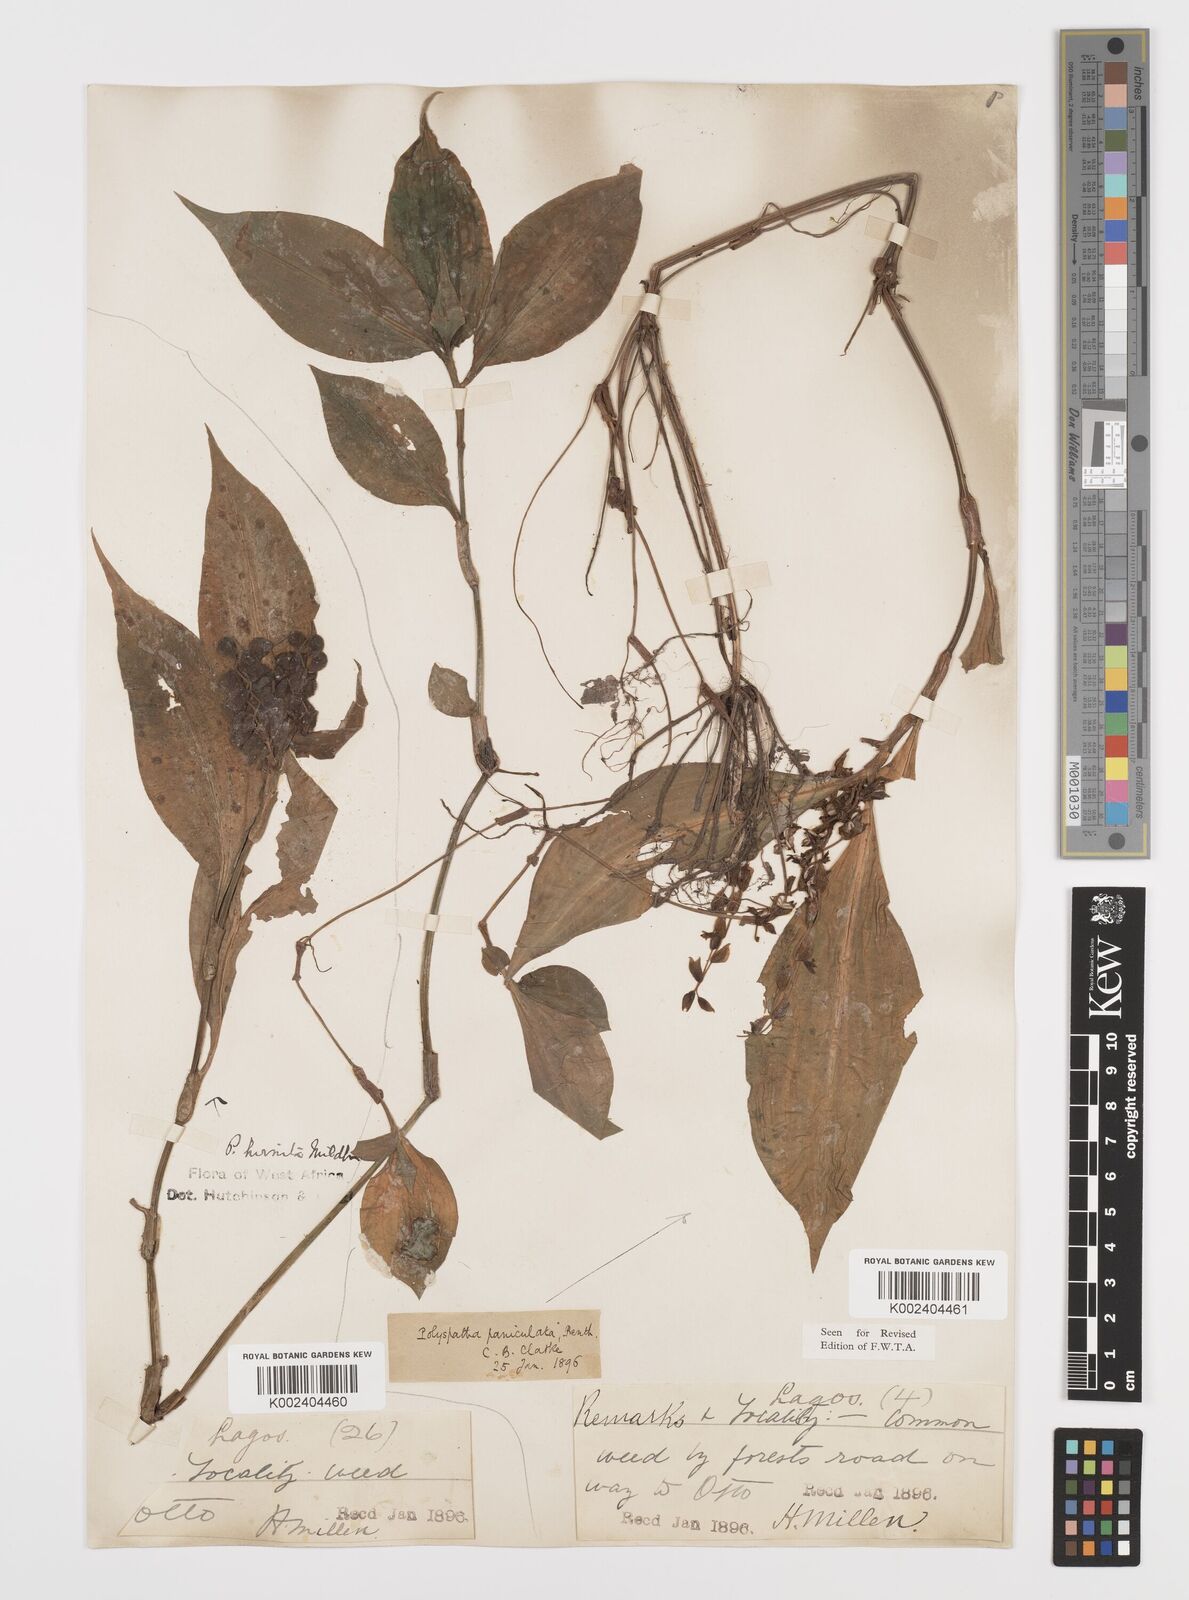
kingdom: Plantae
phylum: Tracheophyta
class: Liliopsida
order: Commelinales
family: Commelinaceae
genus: Polyspatha
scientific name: Polyspatha hirsuta
